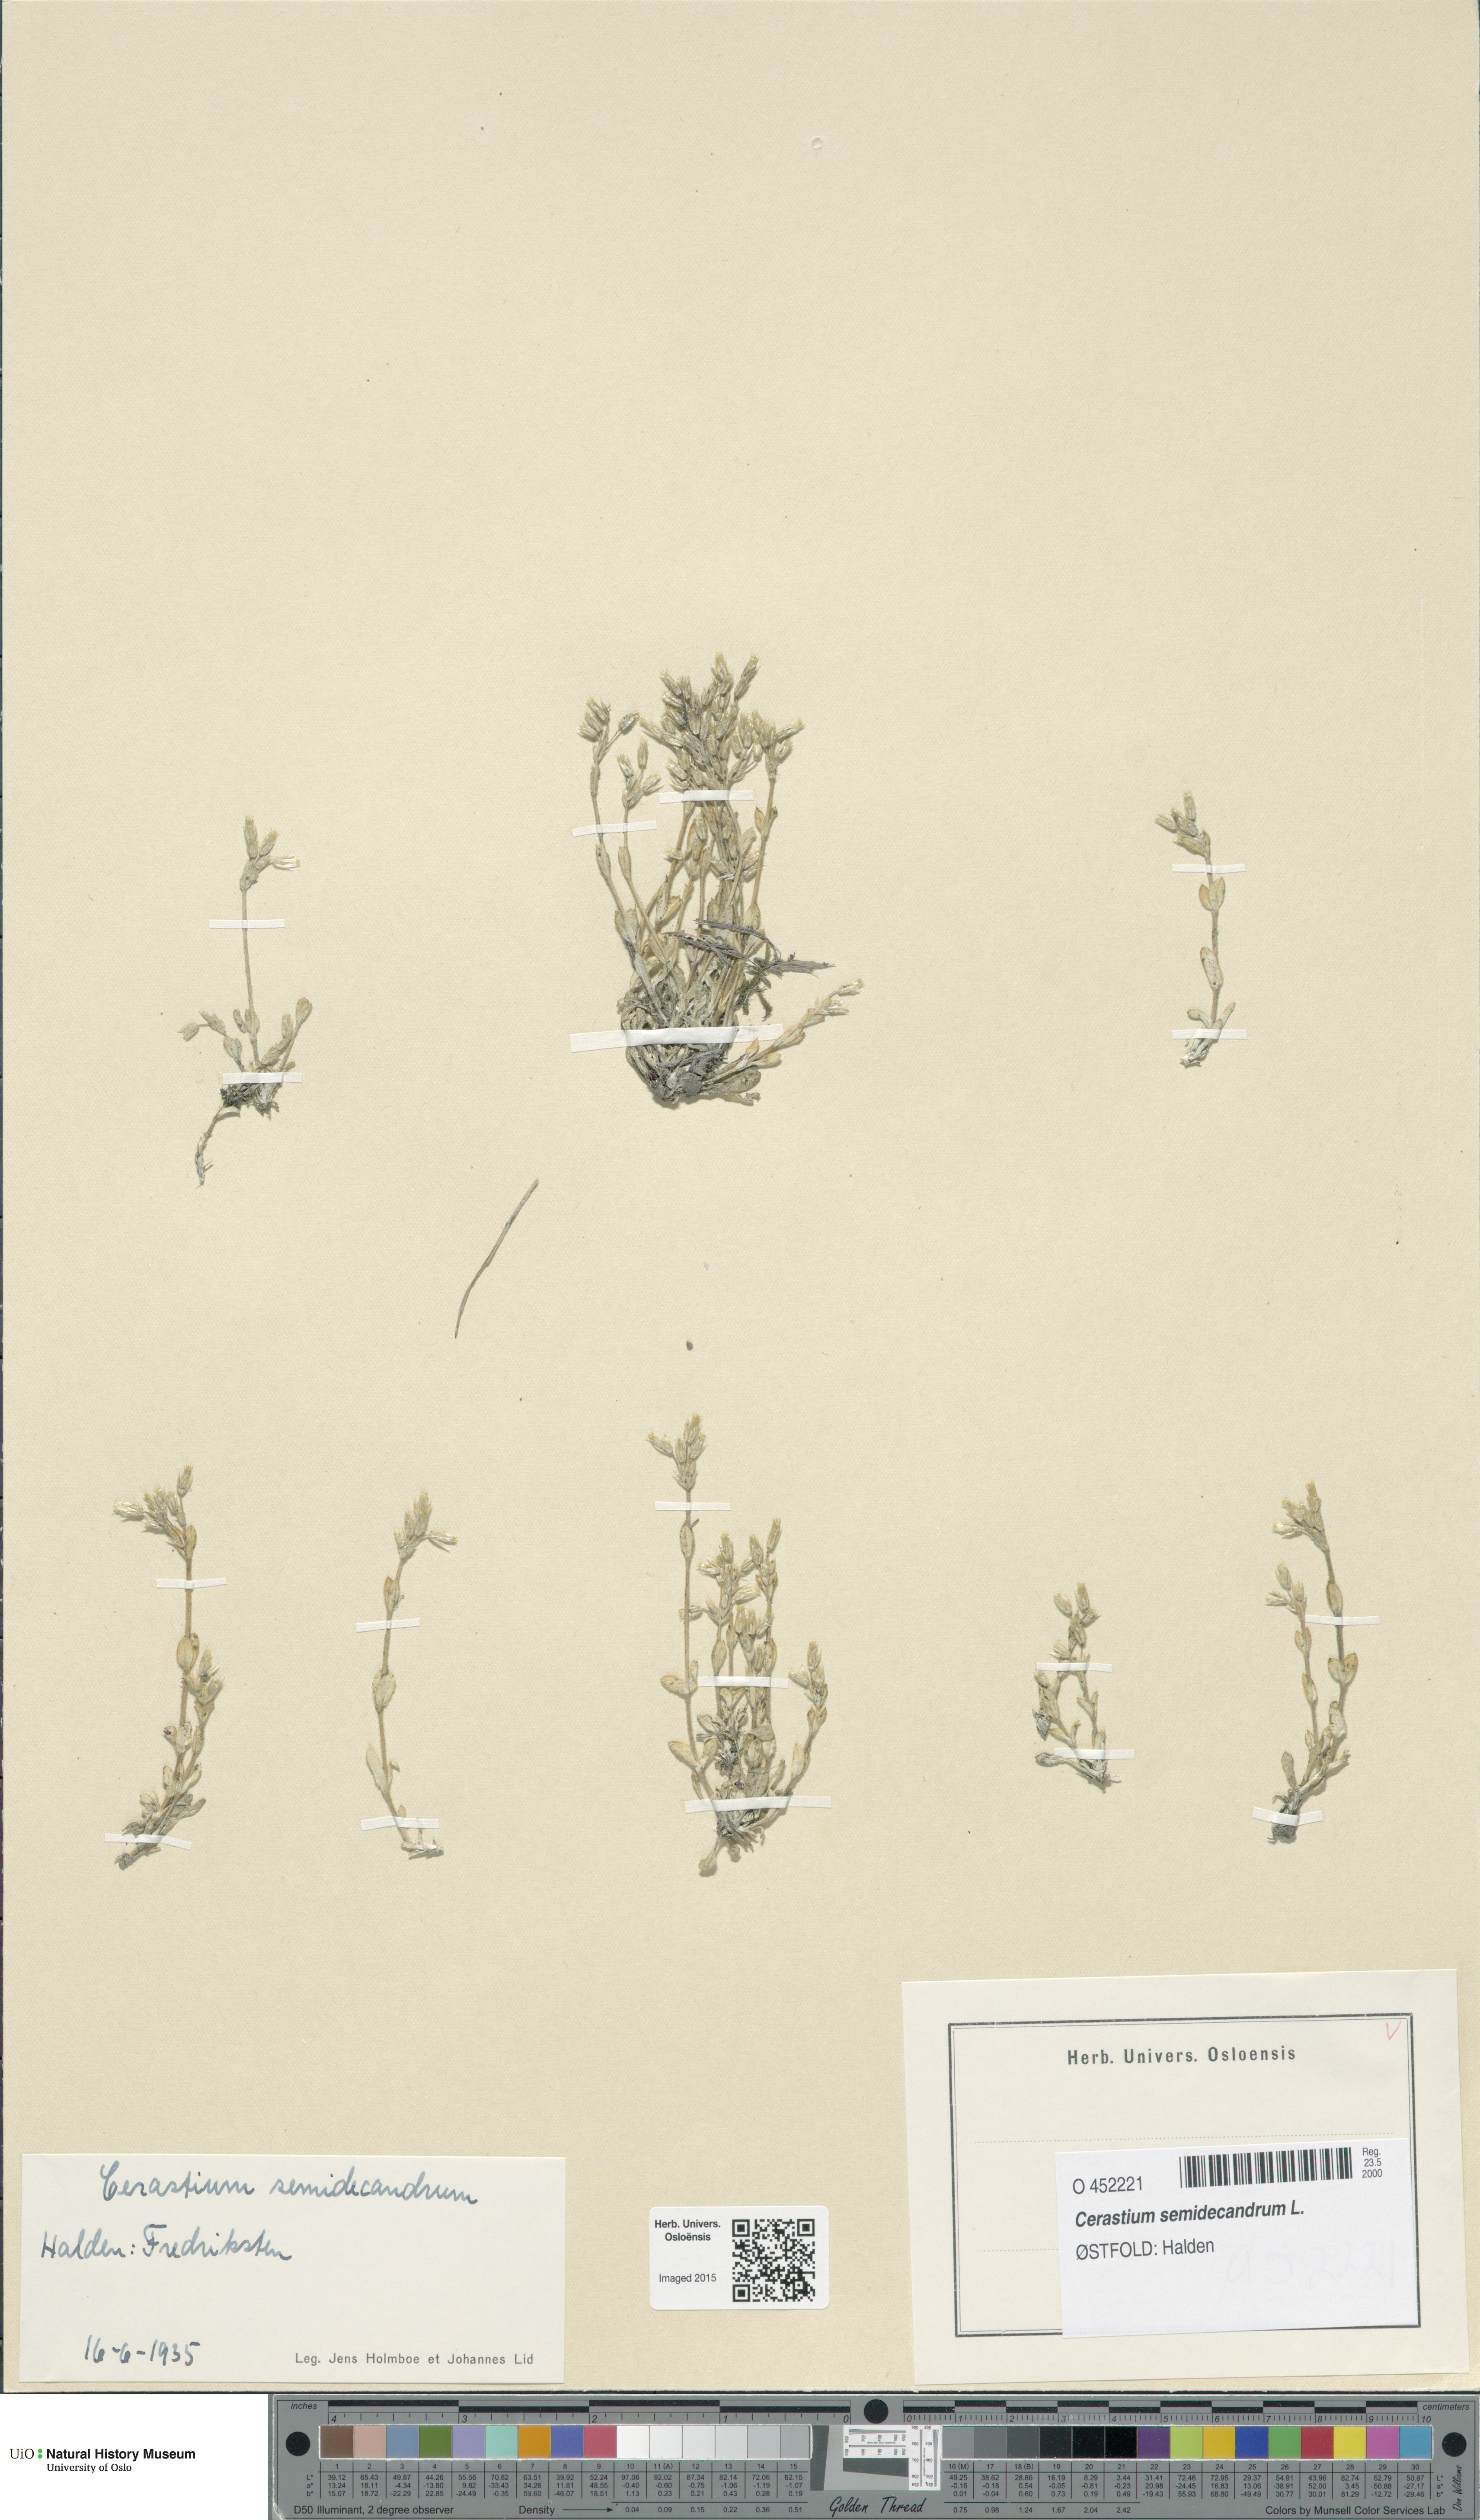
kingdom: Plantae
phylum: Tracheophyta
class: Magnoliopsida
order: Caryophyllales
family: Caryophyllaceae
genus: Cerastium
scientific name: Cerastium semidecandrum
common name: Little mouse-ear
